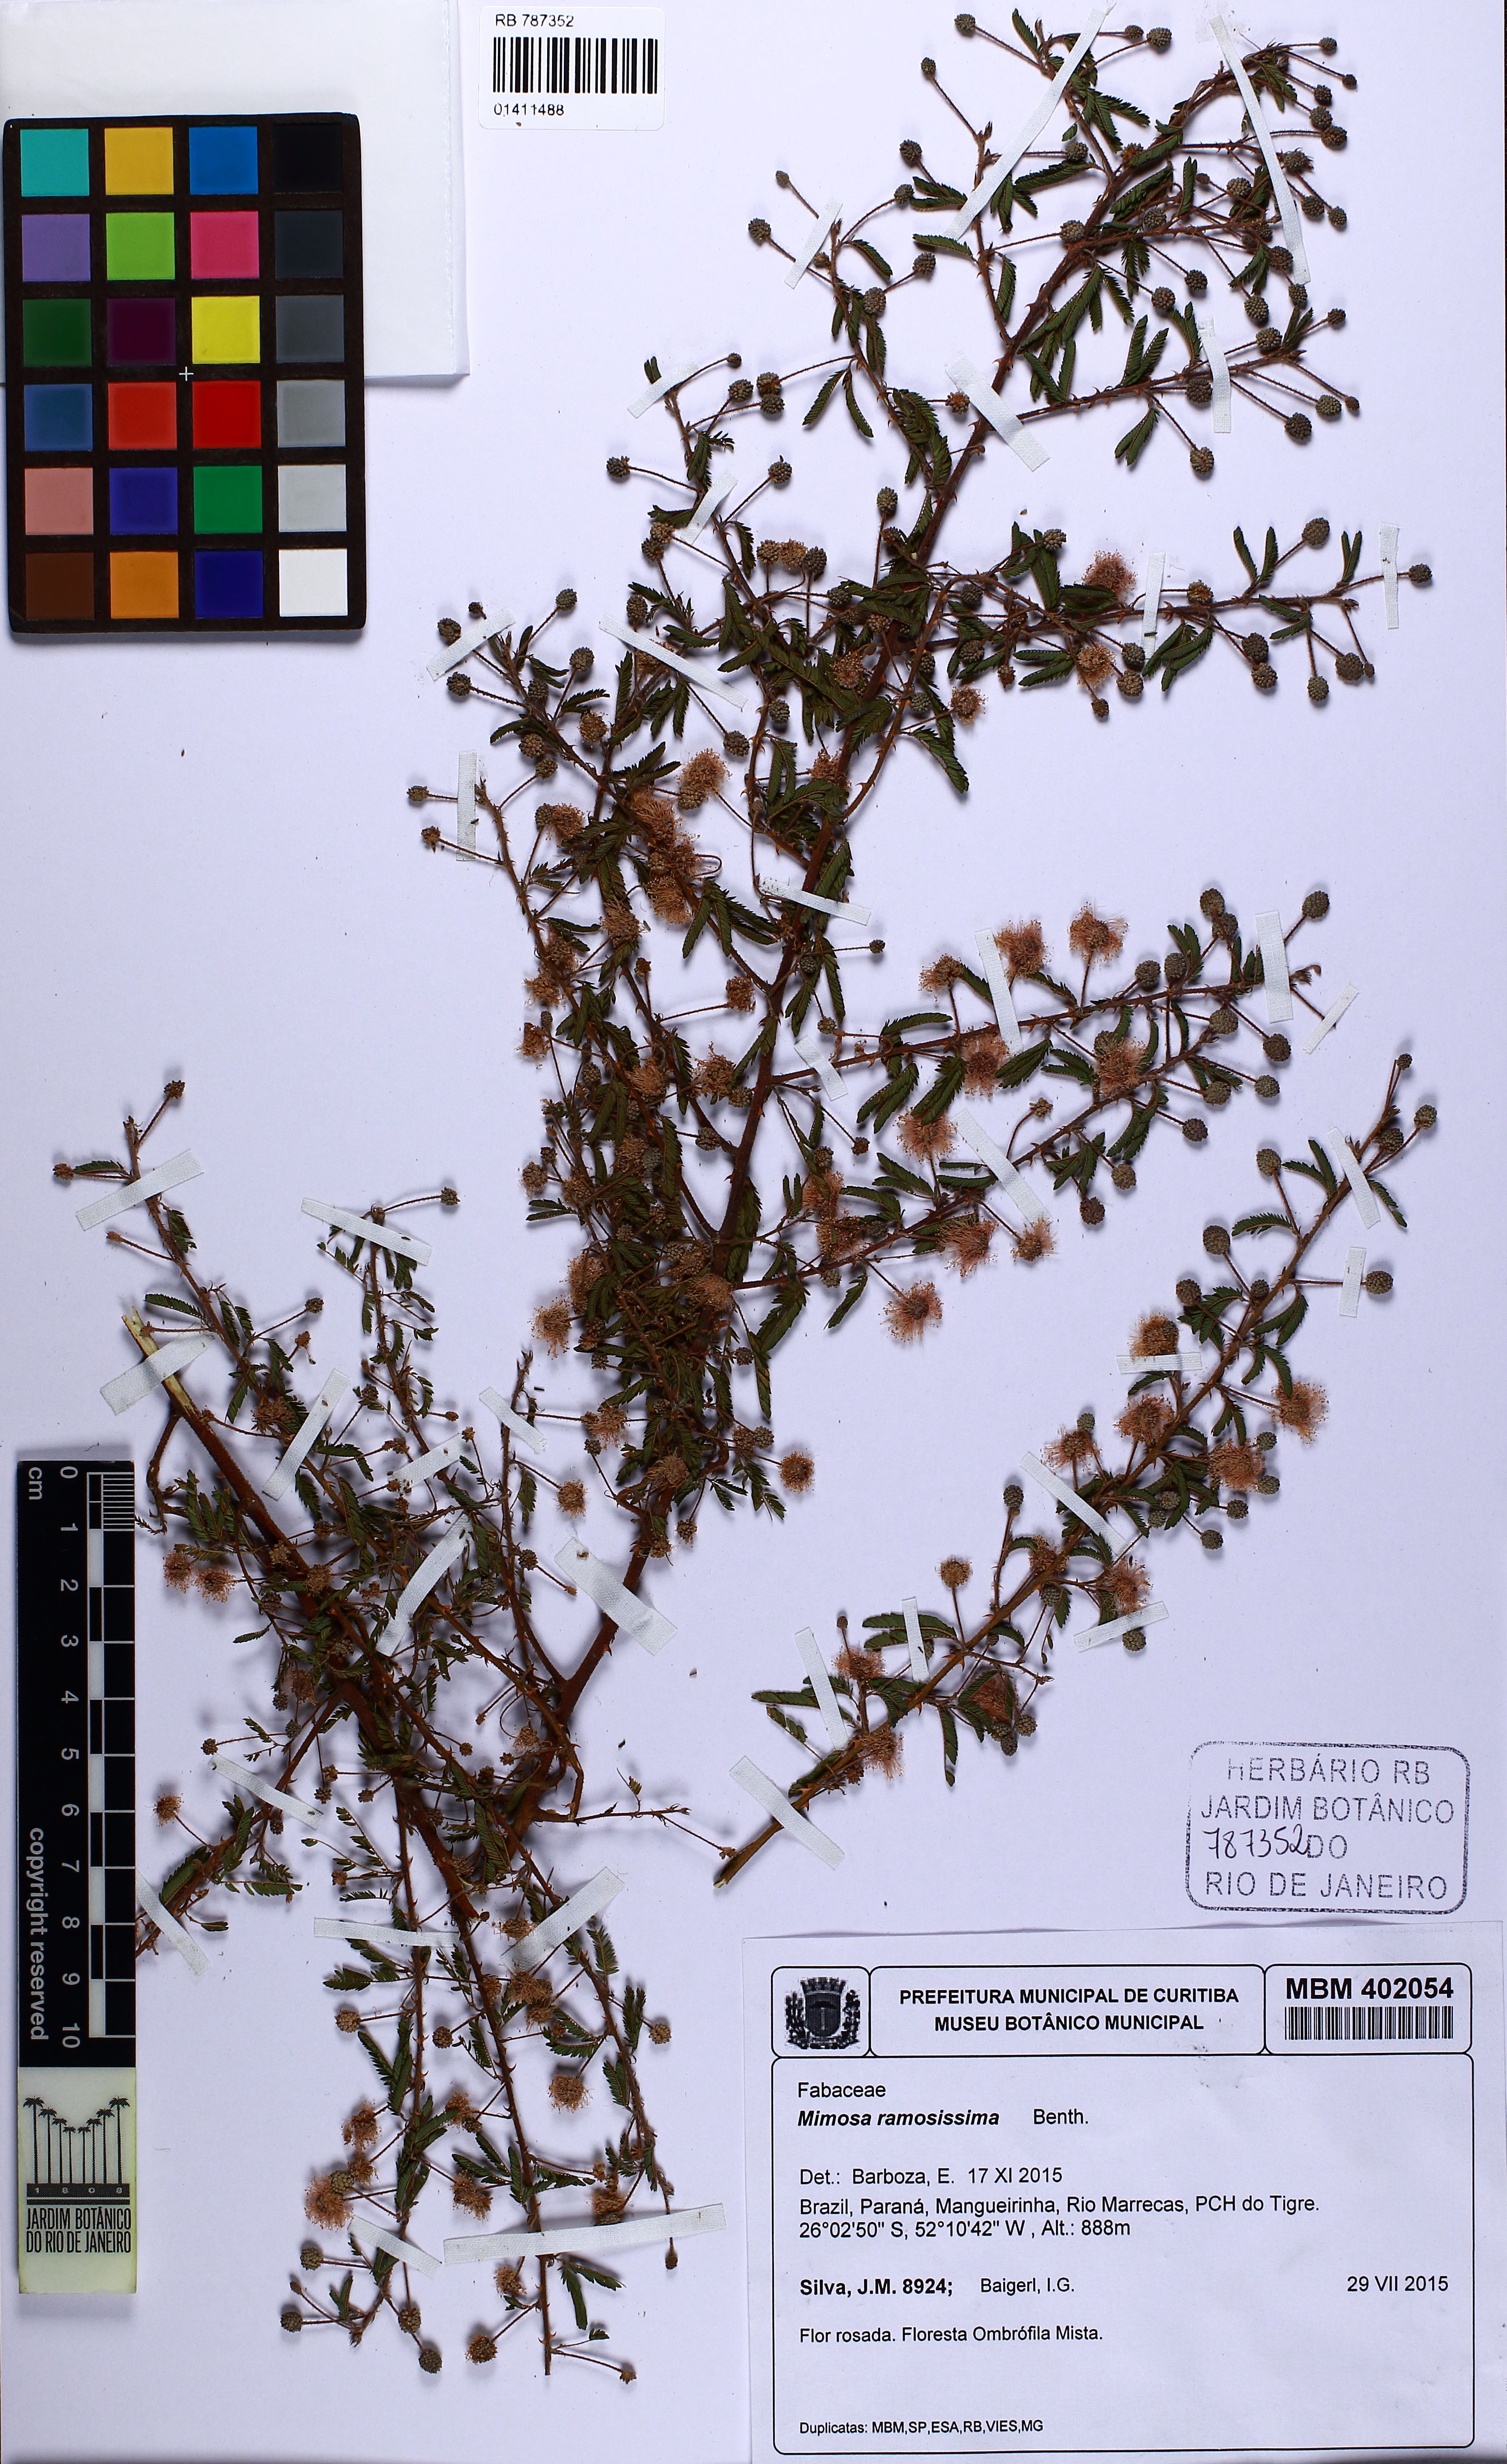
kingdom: Plantae
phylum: Tracheophyta
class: Magnoliopsida
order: Fabales
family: Fabaceae
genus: Mimosa
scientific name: Mimosa ramosissima
